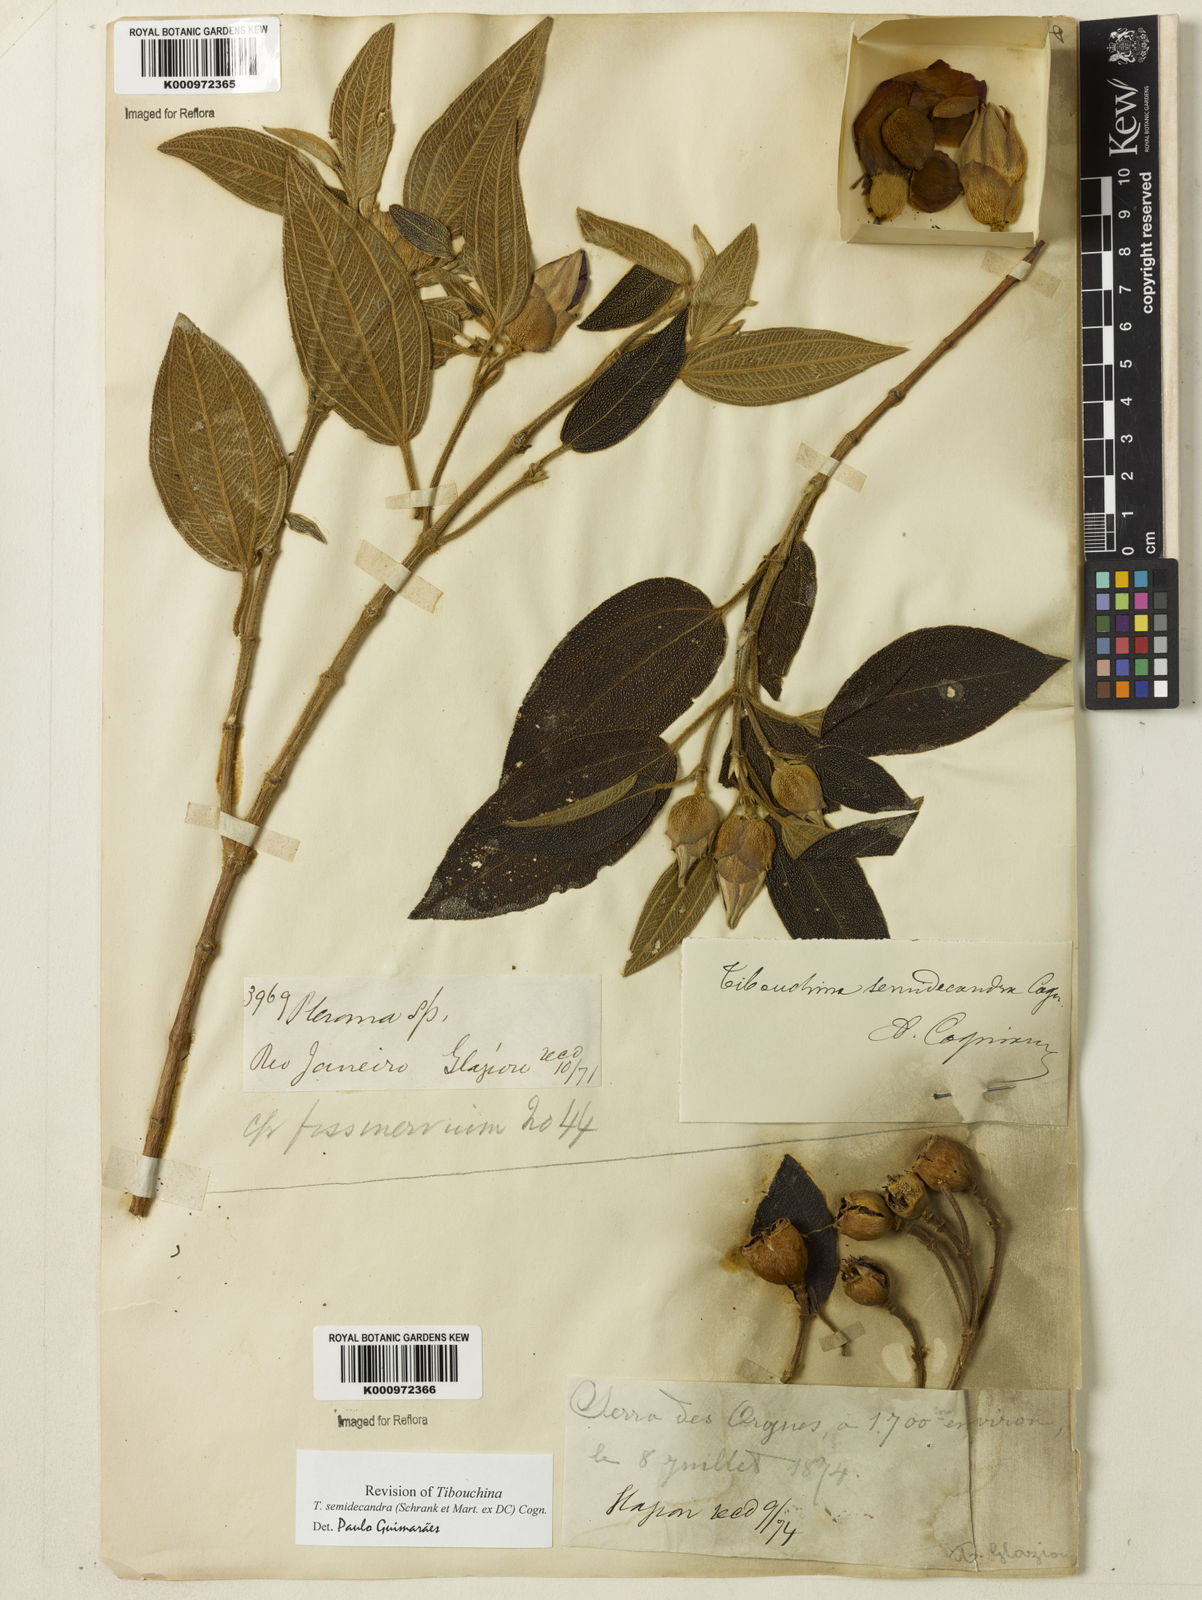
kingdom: Plantae
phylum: Tracheophyta
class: Magnoliopsida
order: Myrtales
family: Melastomataceae
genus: Pleroma
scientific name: Pleroma semidecandrum
